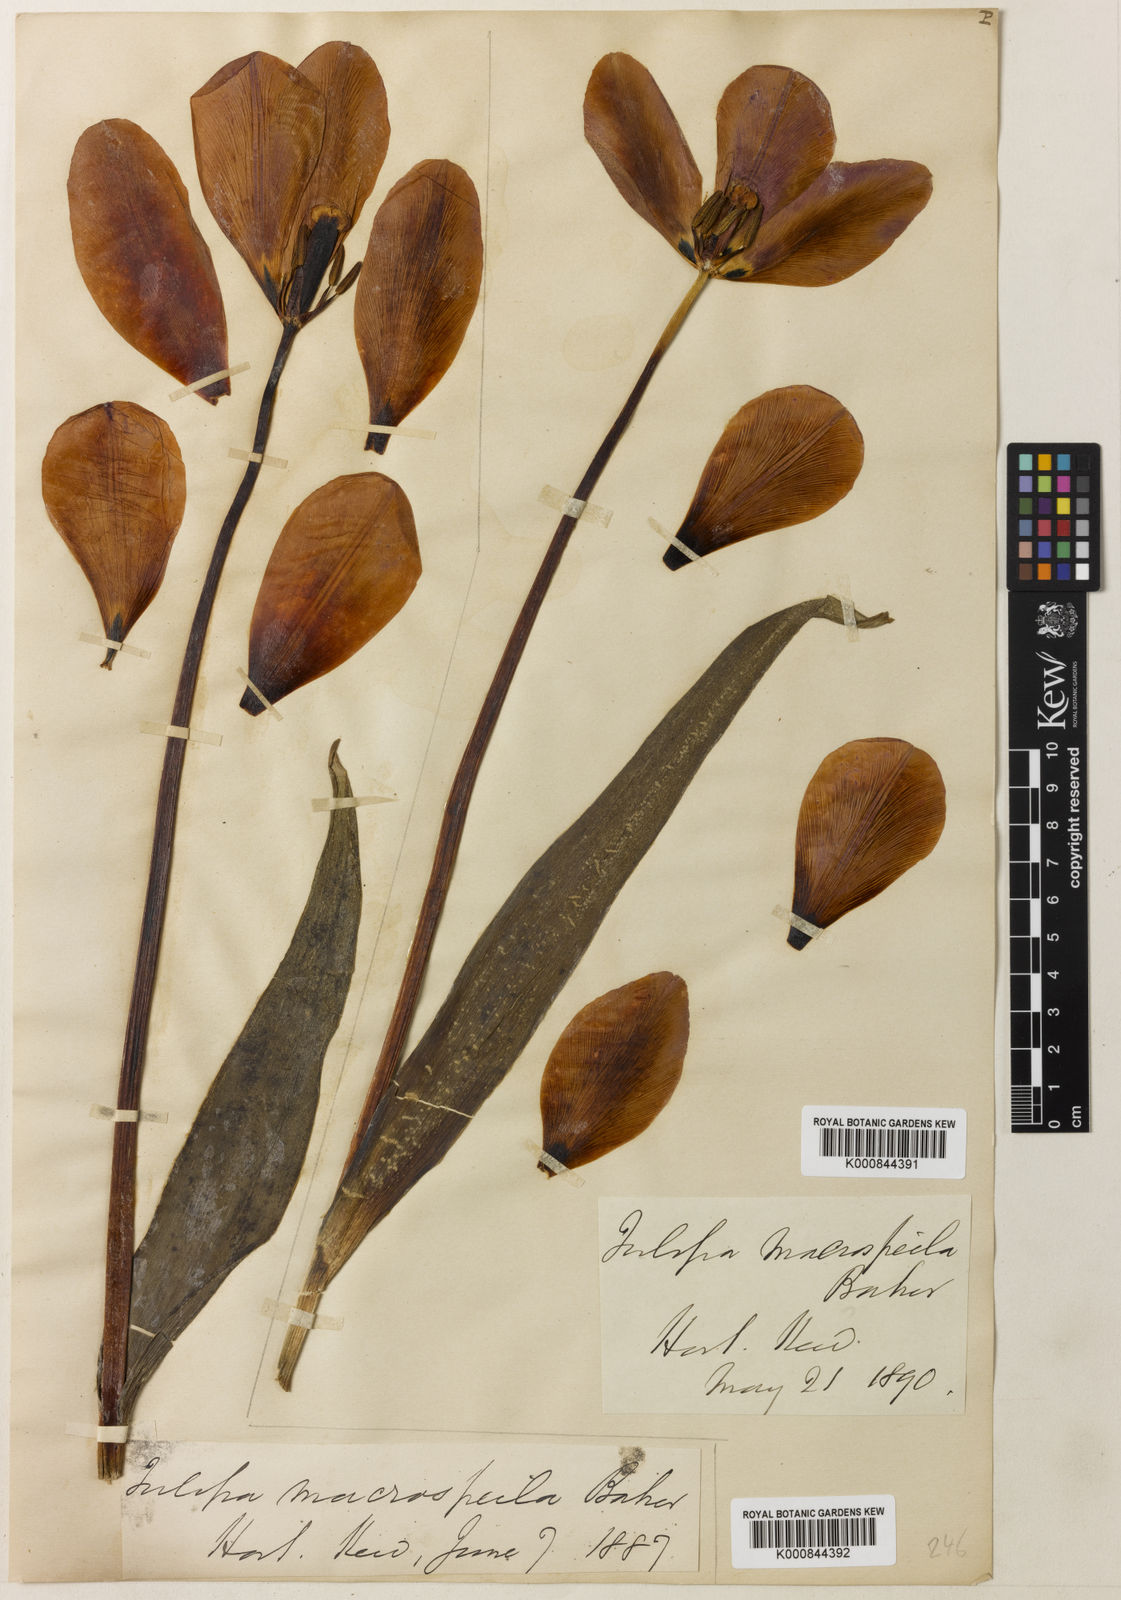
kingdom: Plantae
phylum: Tracheophyta
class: Liliopsida
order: Liliales
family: Liliaceae
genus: Tulipa
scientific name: Tulipa gesneriana
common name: Garden tulip
